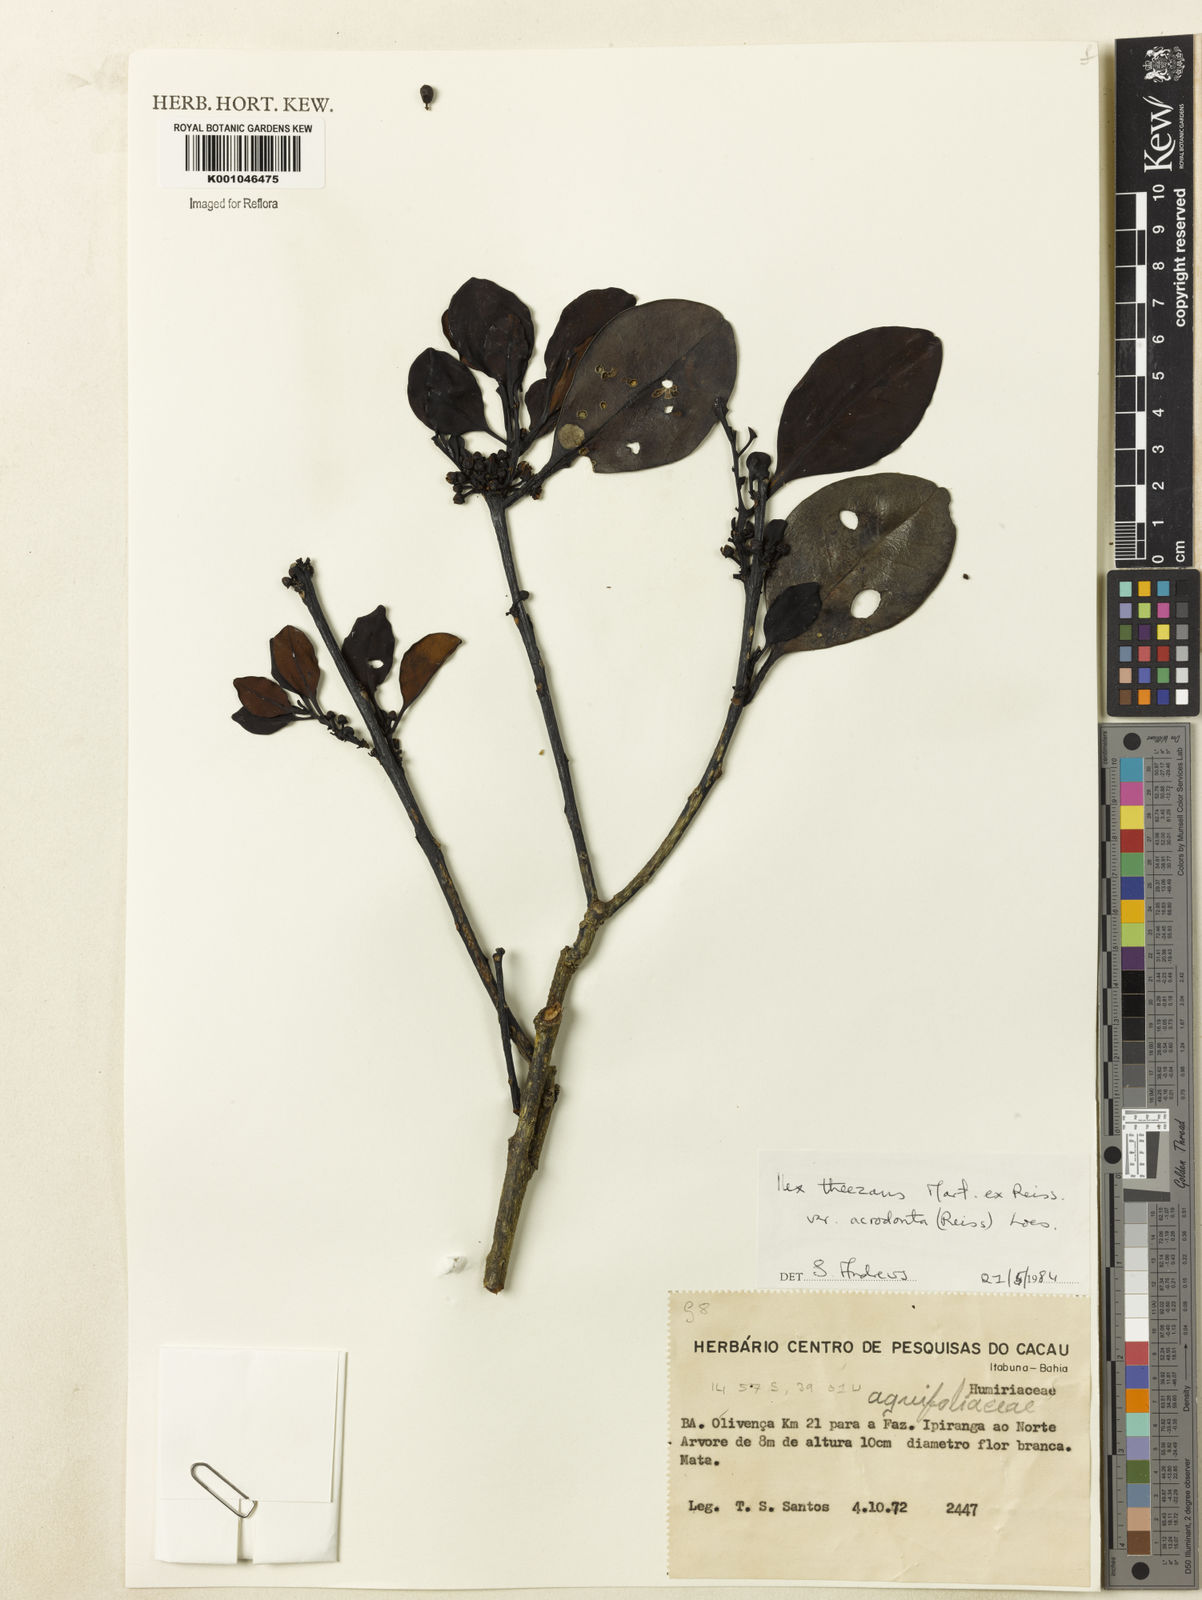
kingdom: Plantae
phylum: Tracheophyta
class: Magnoliopsida
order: Aquifoliales
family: Aquifoliaceae
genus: Ilex
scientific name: Ilex paraguariensis
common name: Paraguay tea
